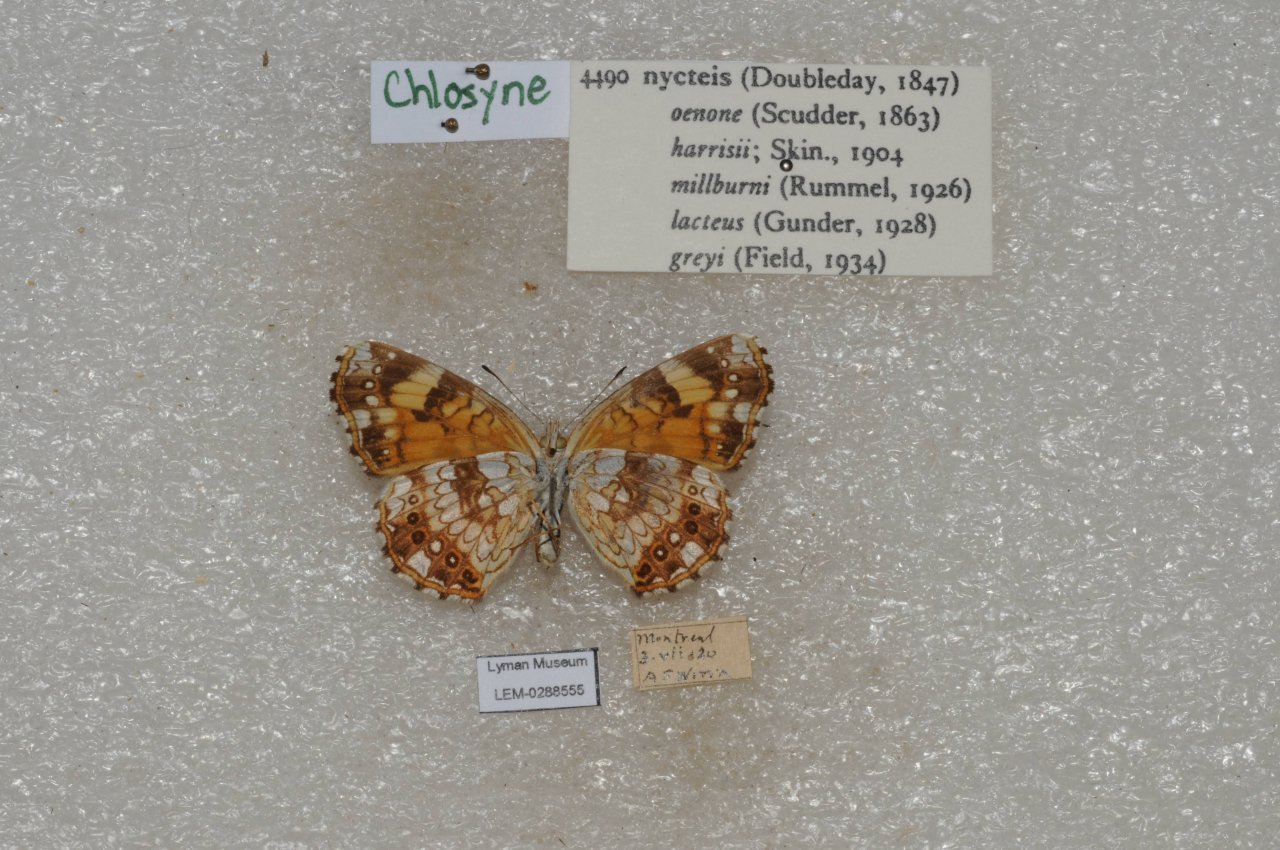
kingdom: Animalia
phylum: Arthropoda
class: Insecta
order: Lepidoptera
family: Nymphalidae
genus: Chlosyne
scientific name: Chlosyne nycteis
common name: Silvery Checkerspot
